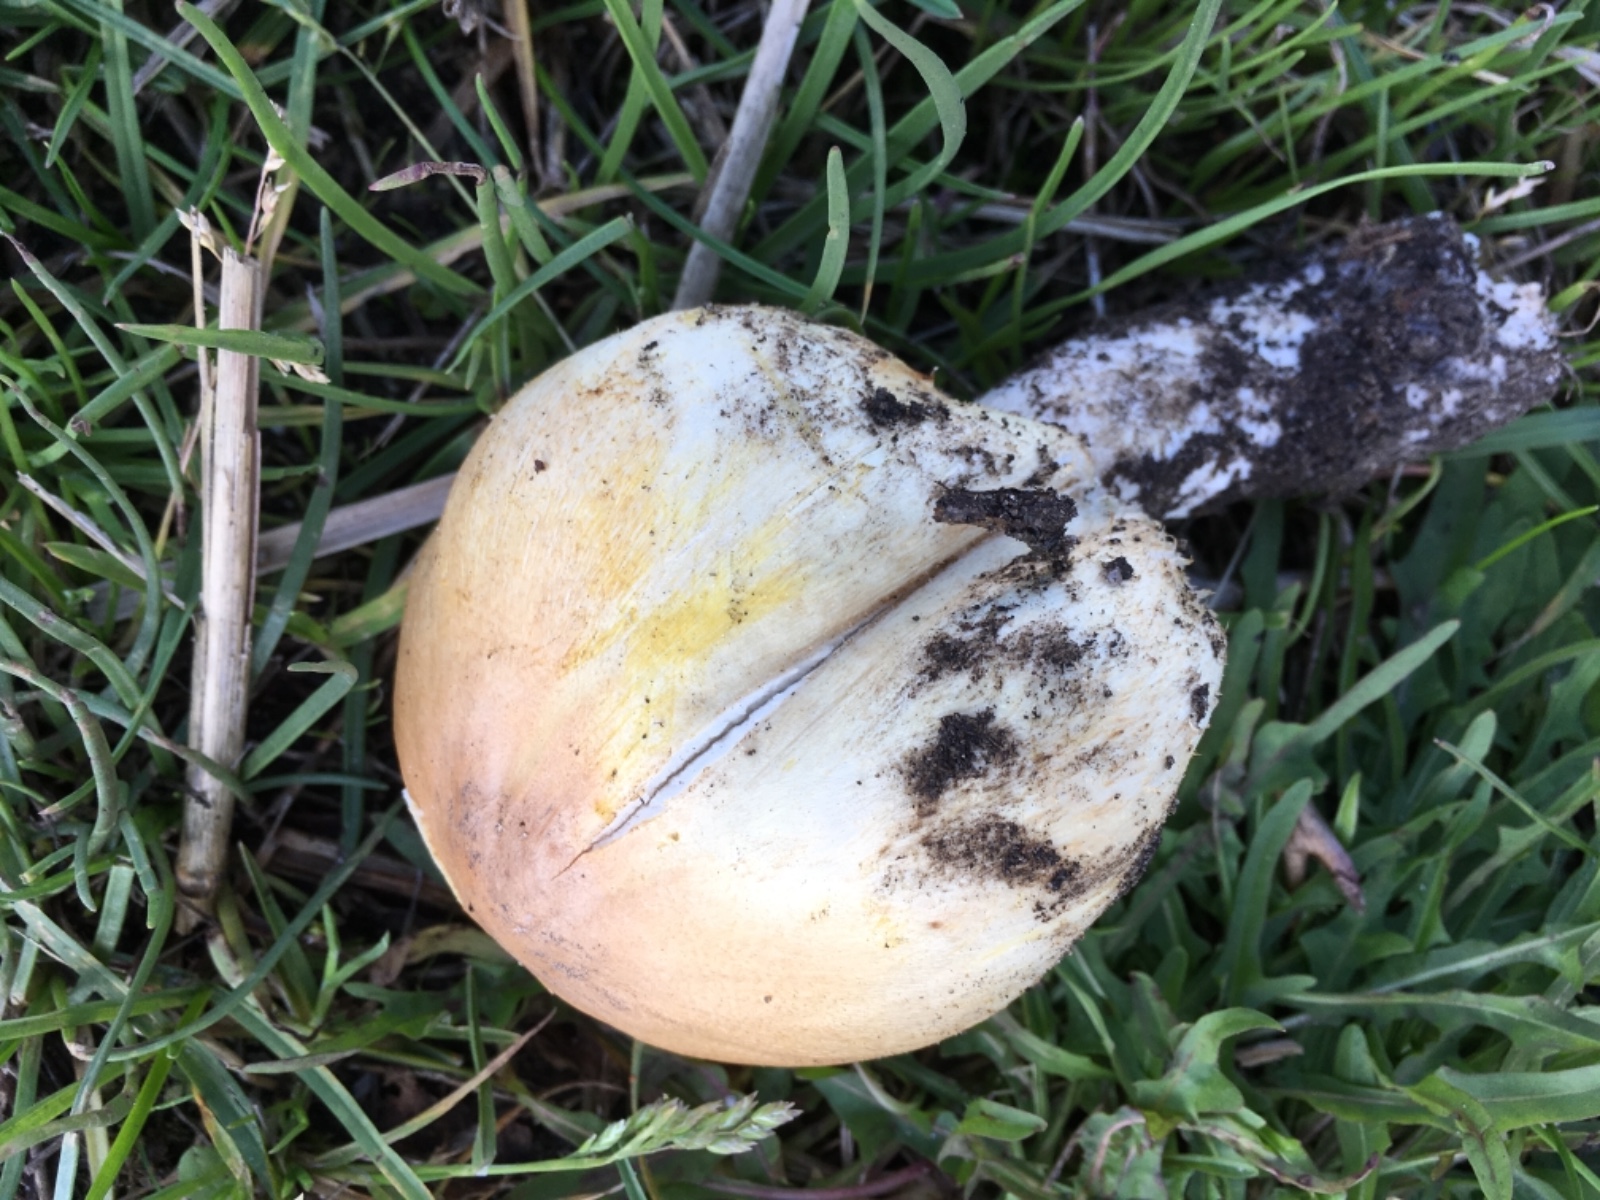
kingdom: Fungi
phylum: Basidiomycota
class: Agaricomycetes
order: Agaricales
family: Agaricaceae
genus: Agaricus
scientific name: Agaricus
